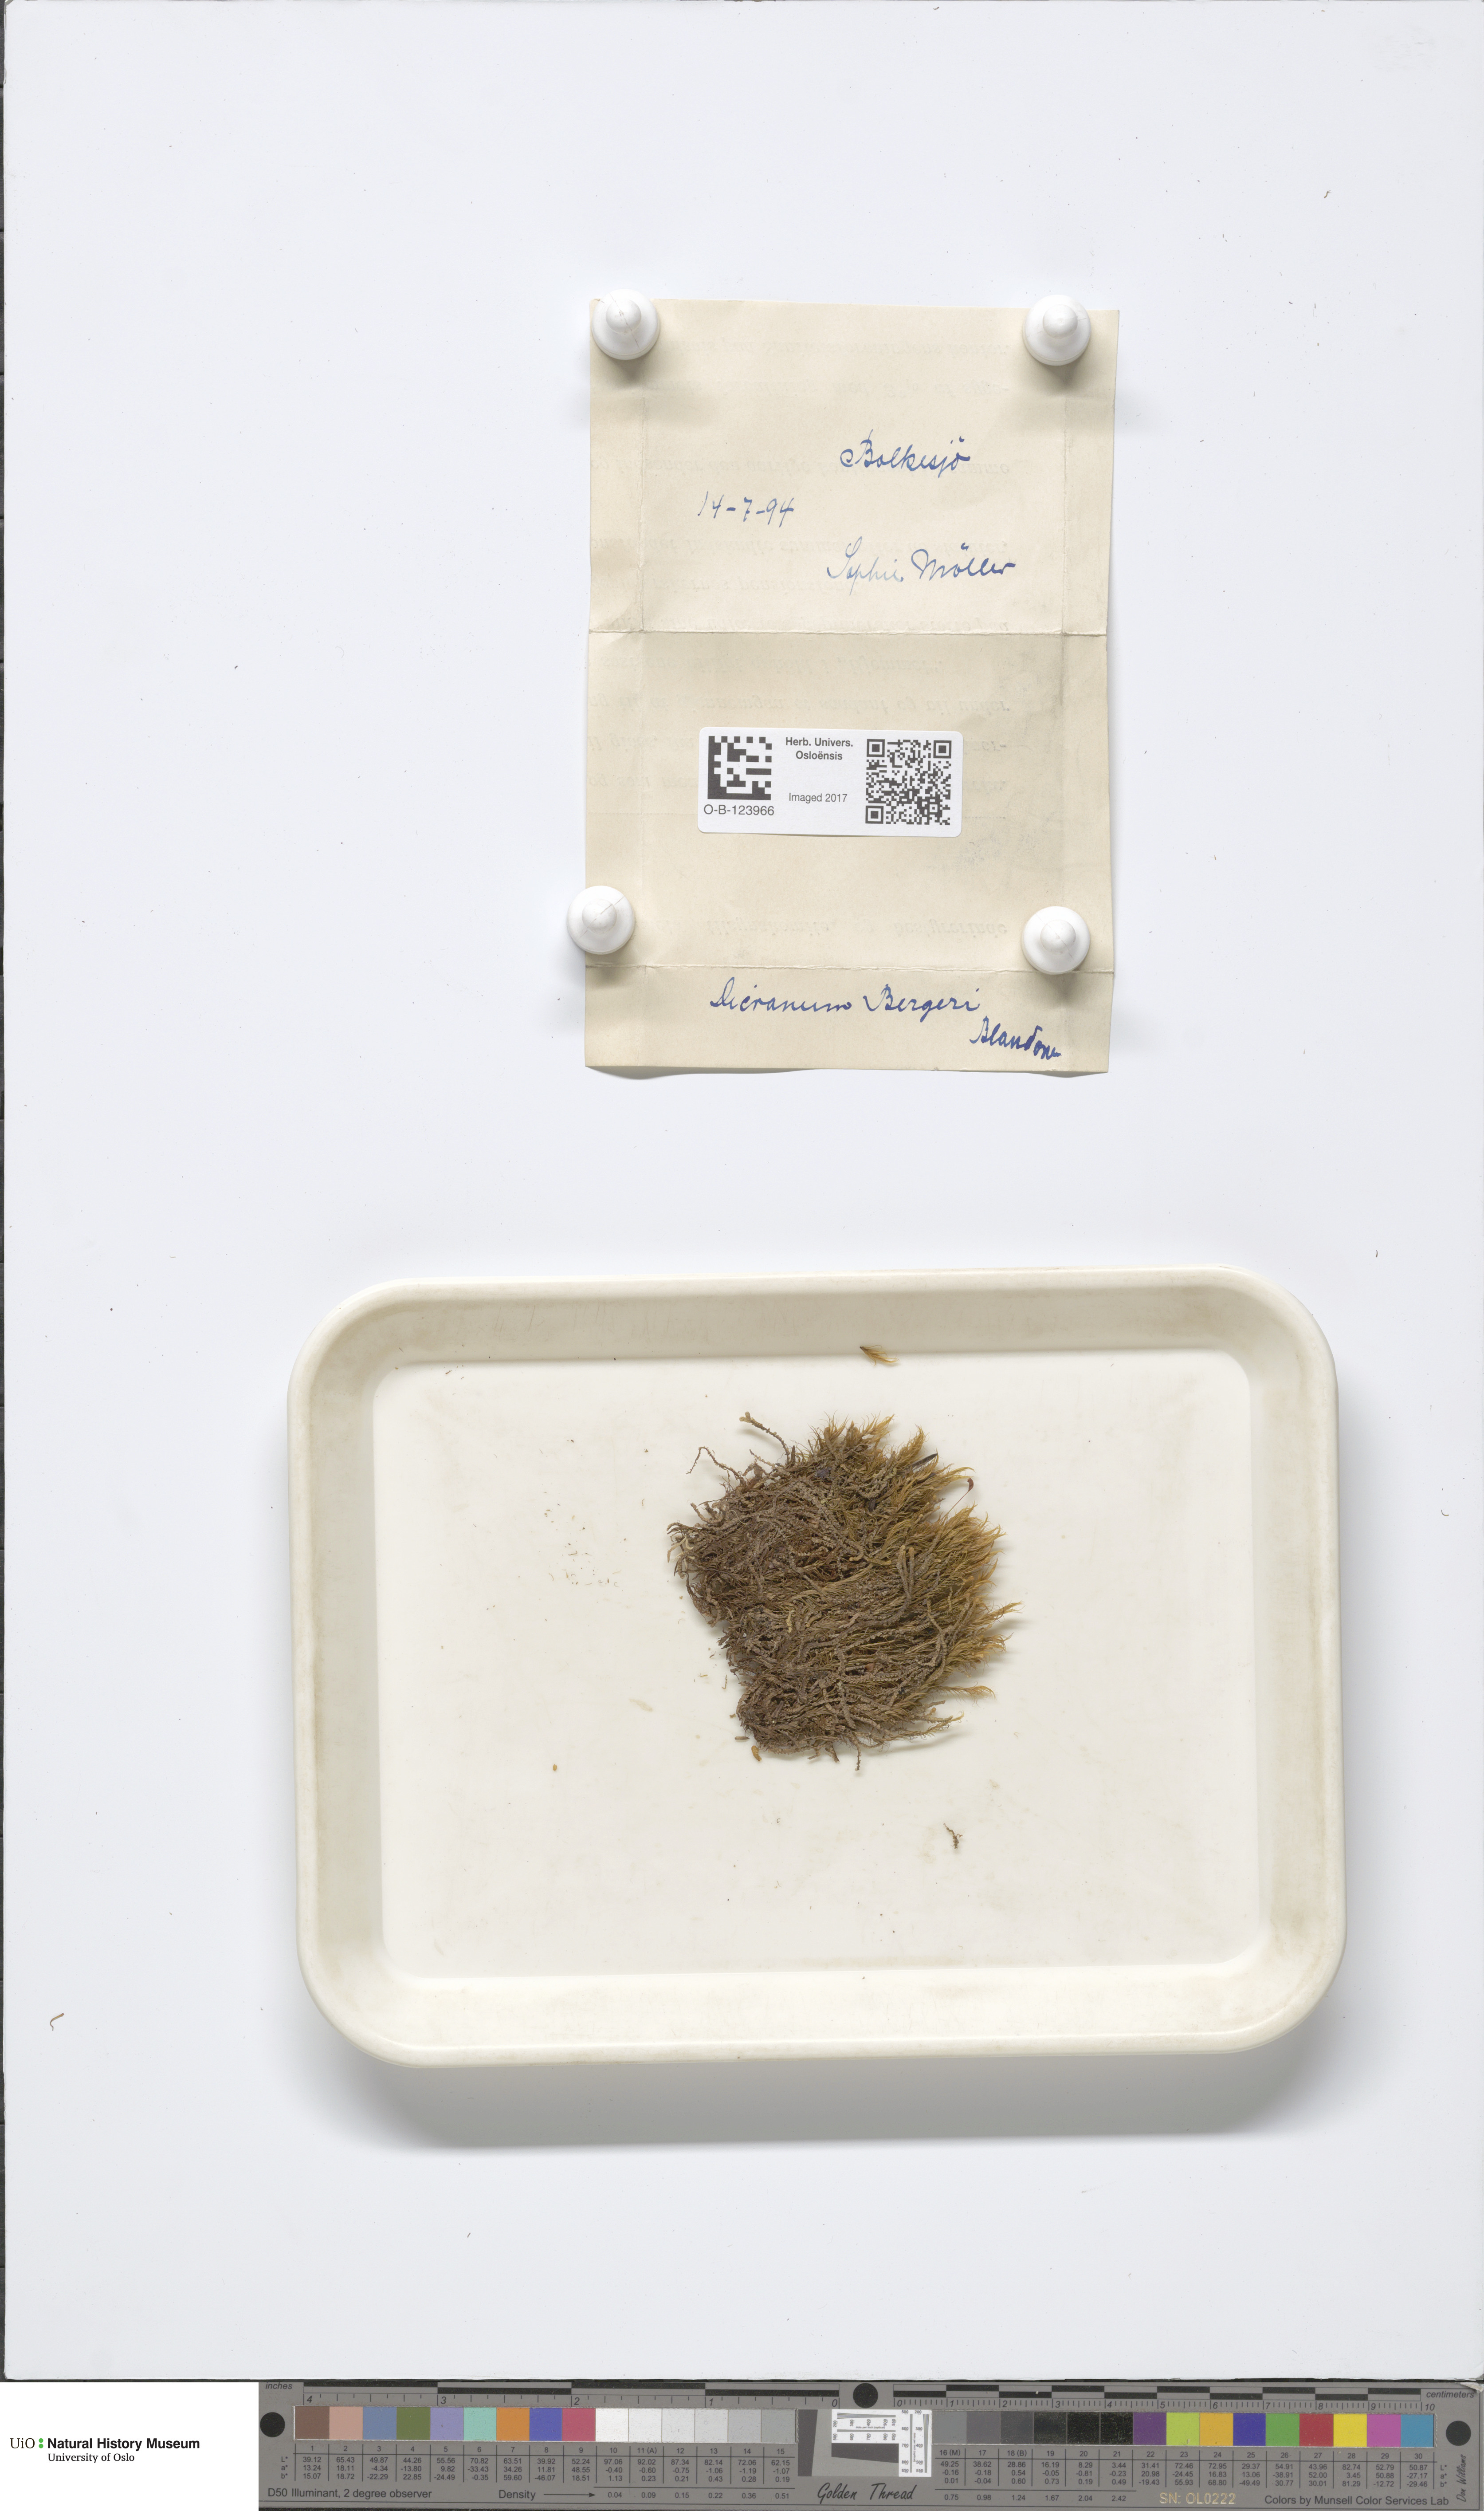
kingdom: Plantae
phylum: Bryophyta
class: Bryopsida
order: Dicranales
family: Dicranaceae
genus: Dicranum
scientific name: Dicranum undulatum
